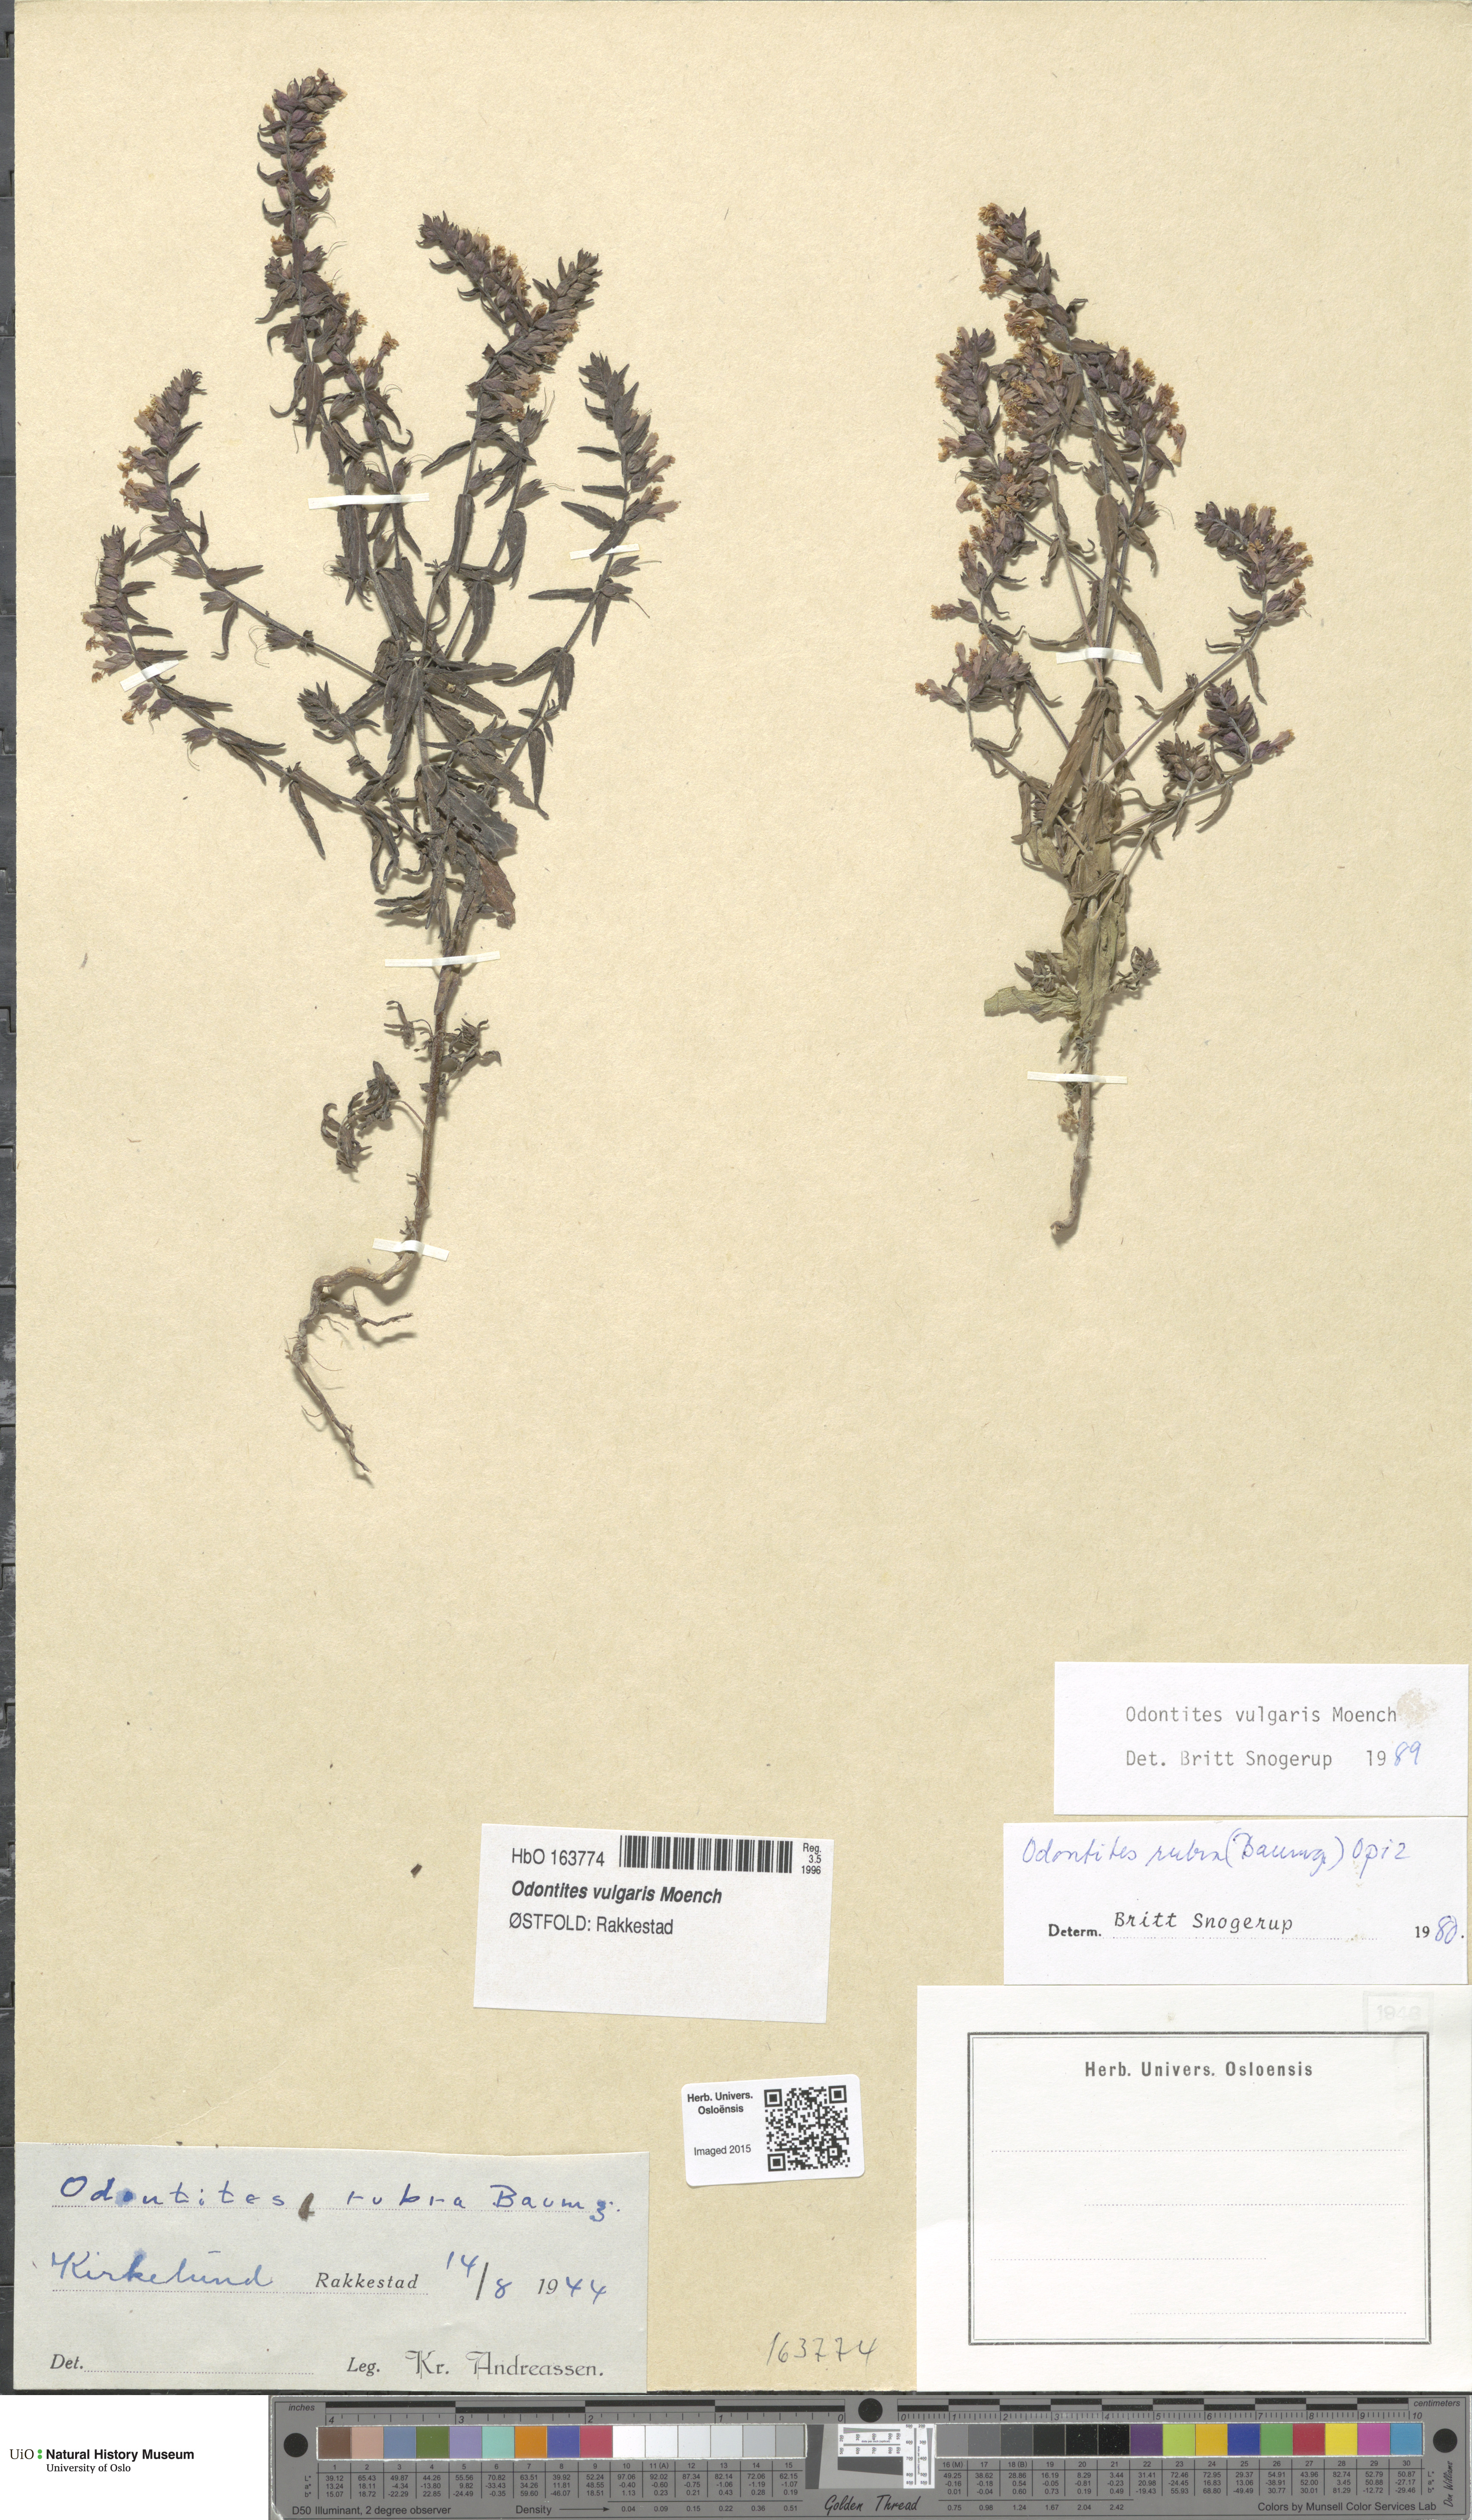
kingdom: Plantae
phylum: Tracheophyta
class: Magnoliopsida
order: Lamiales
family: Orobanchaceae
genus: Odontites
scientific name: Odontites vulgaris
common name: Broomrape
